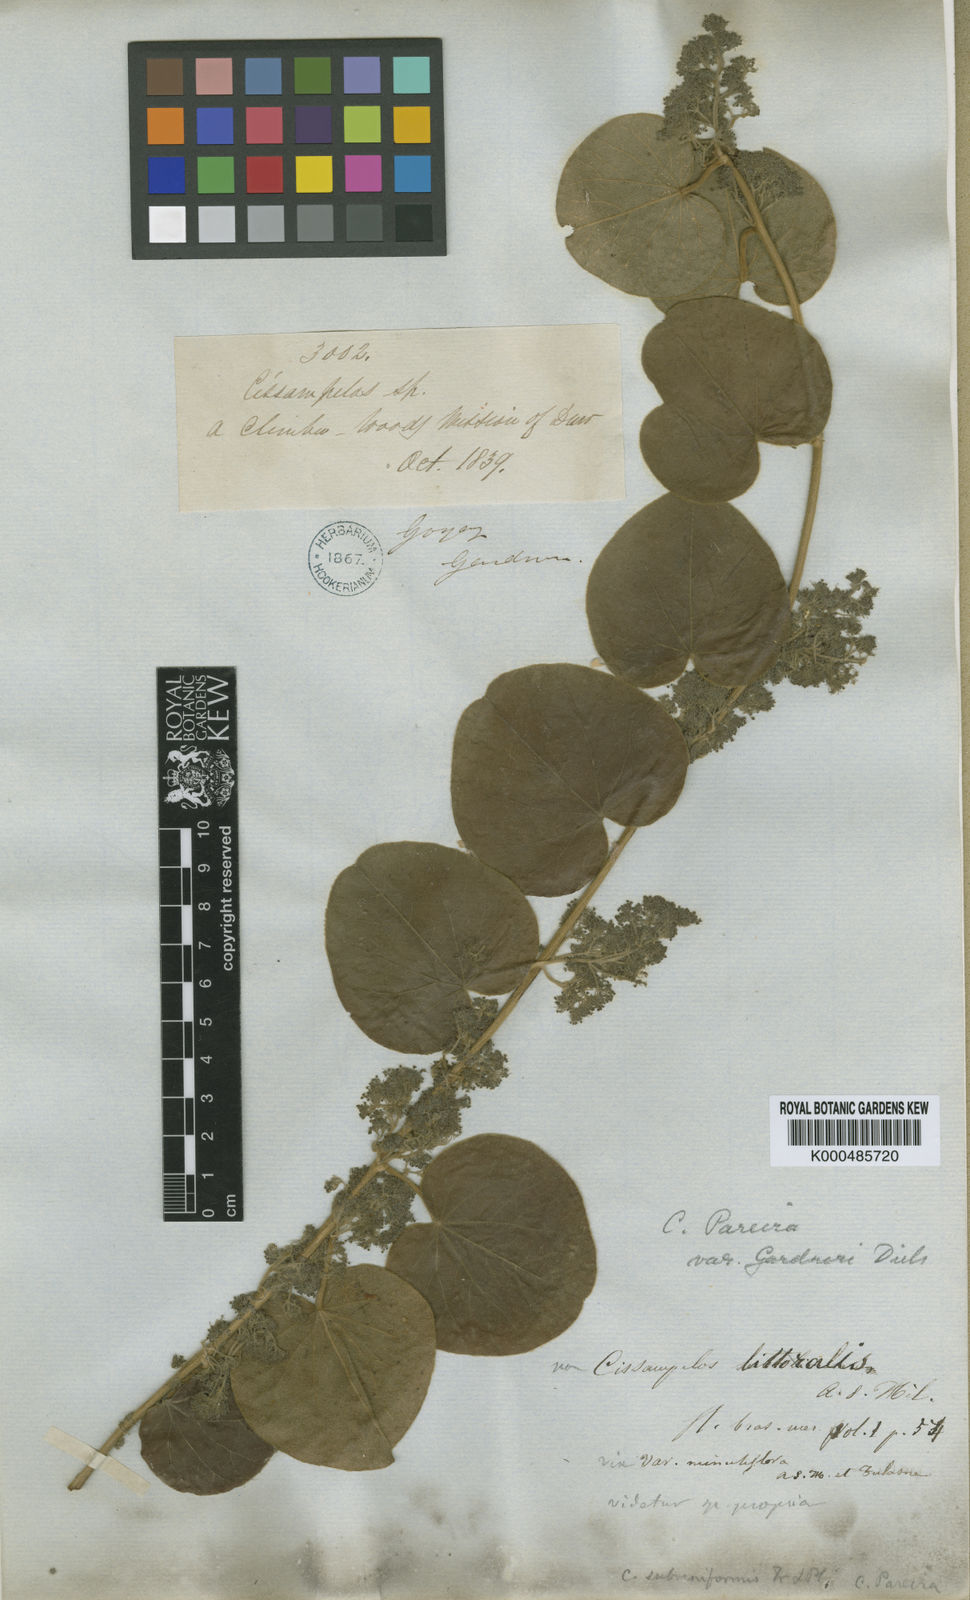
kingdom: Plantae
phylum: Tracheophyta
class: Magnoliopsida
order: Ranunculales
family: Menispermaceae
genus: Cissampelos
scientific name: Cissampelos pareira
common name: Velvetleaf
